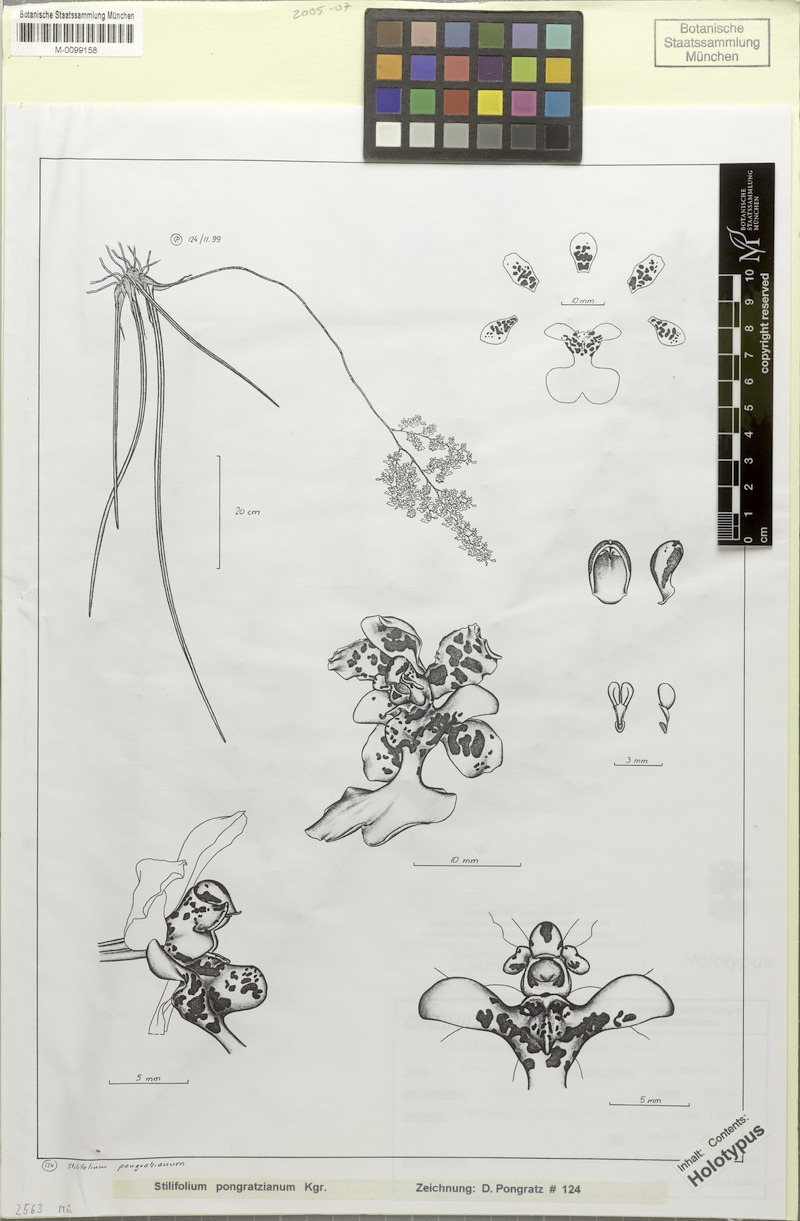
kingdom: Plantae
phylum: Tracheophyta
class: Liliopsida
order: Asparagales
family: Orchidaceae
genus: Trichocentrum
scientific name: Trichocentrum cepula
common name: Rat-tail orchid
